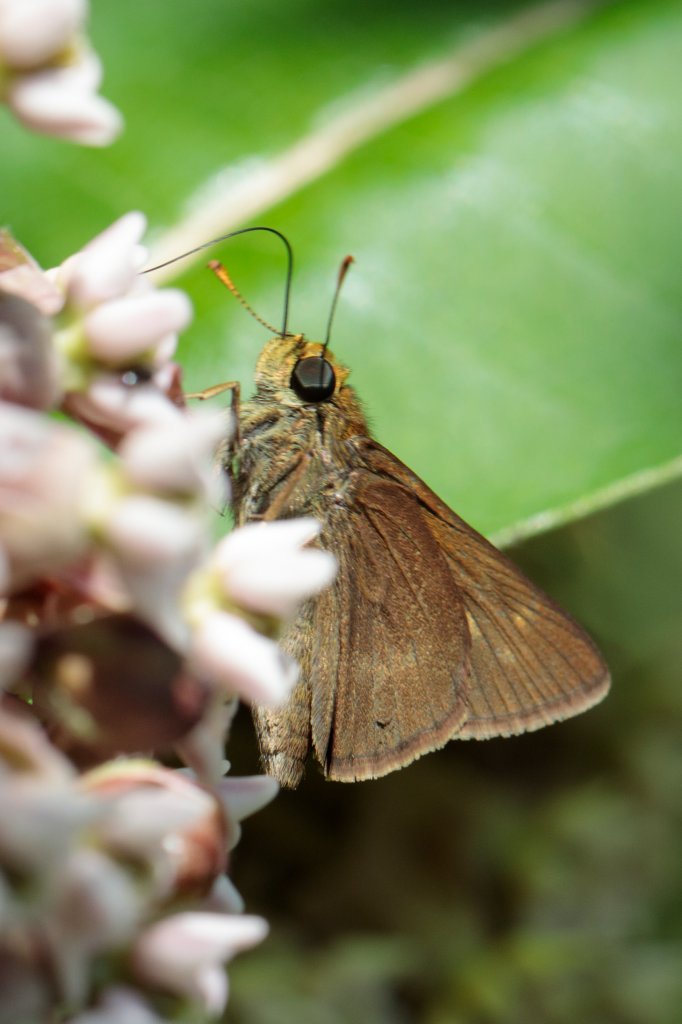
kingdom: Animalia
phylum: Arthropoda
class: Insecta
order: Lepidoptera
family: Hesperiidae
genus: Euphyes
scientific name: Euphyes vestris
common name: Dun Skipper
